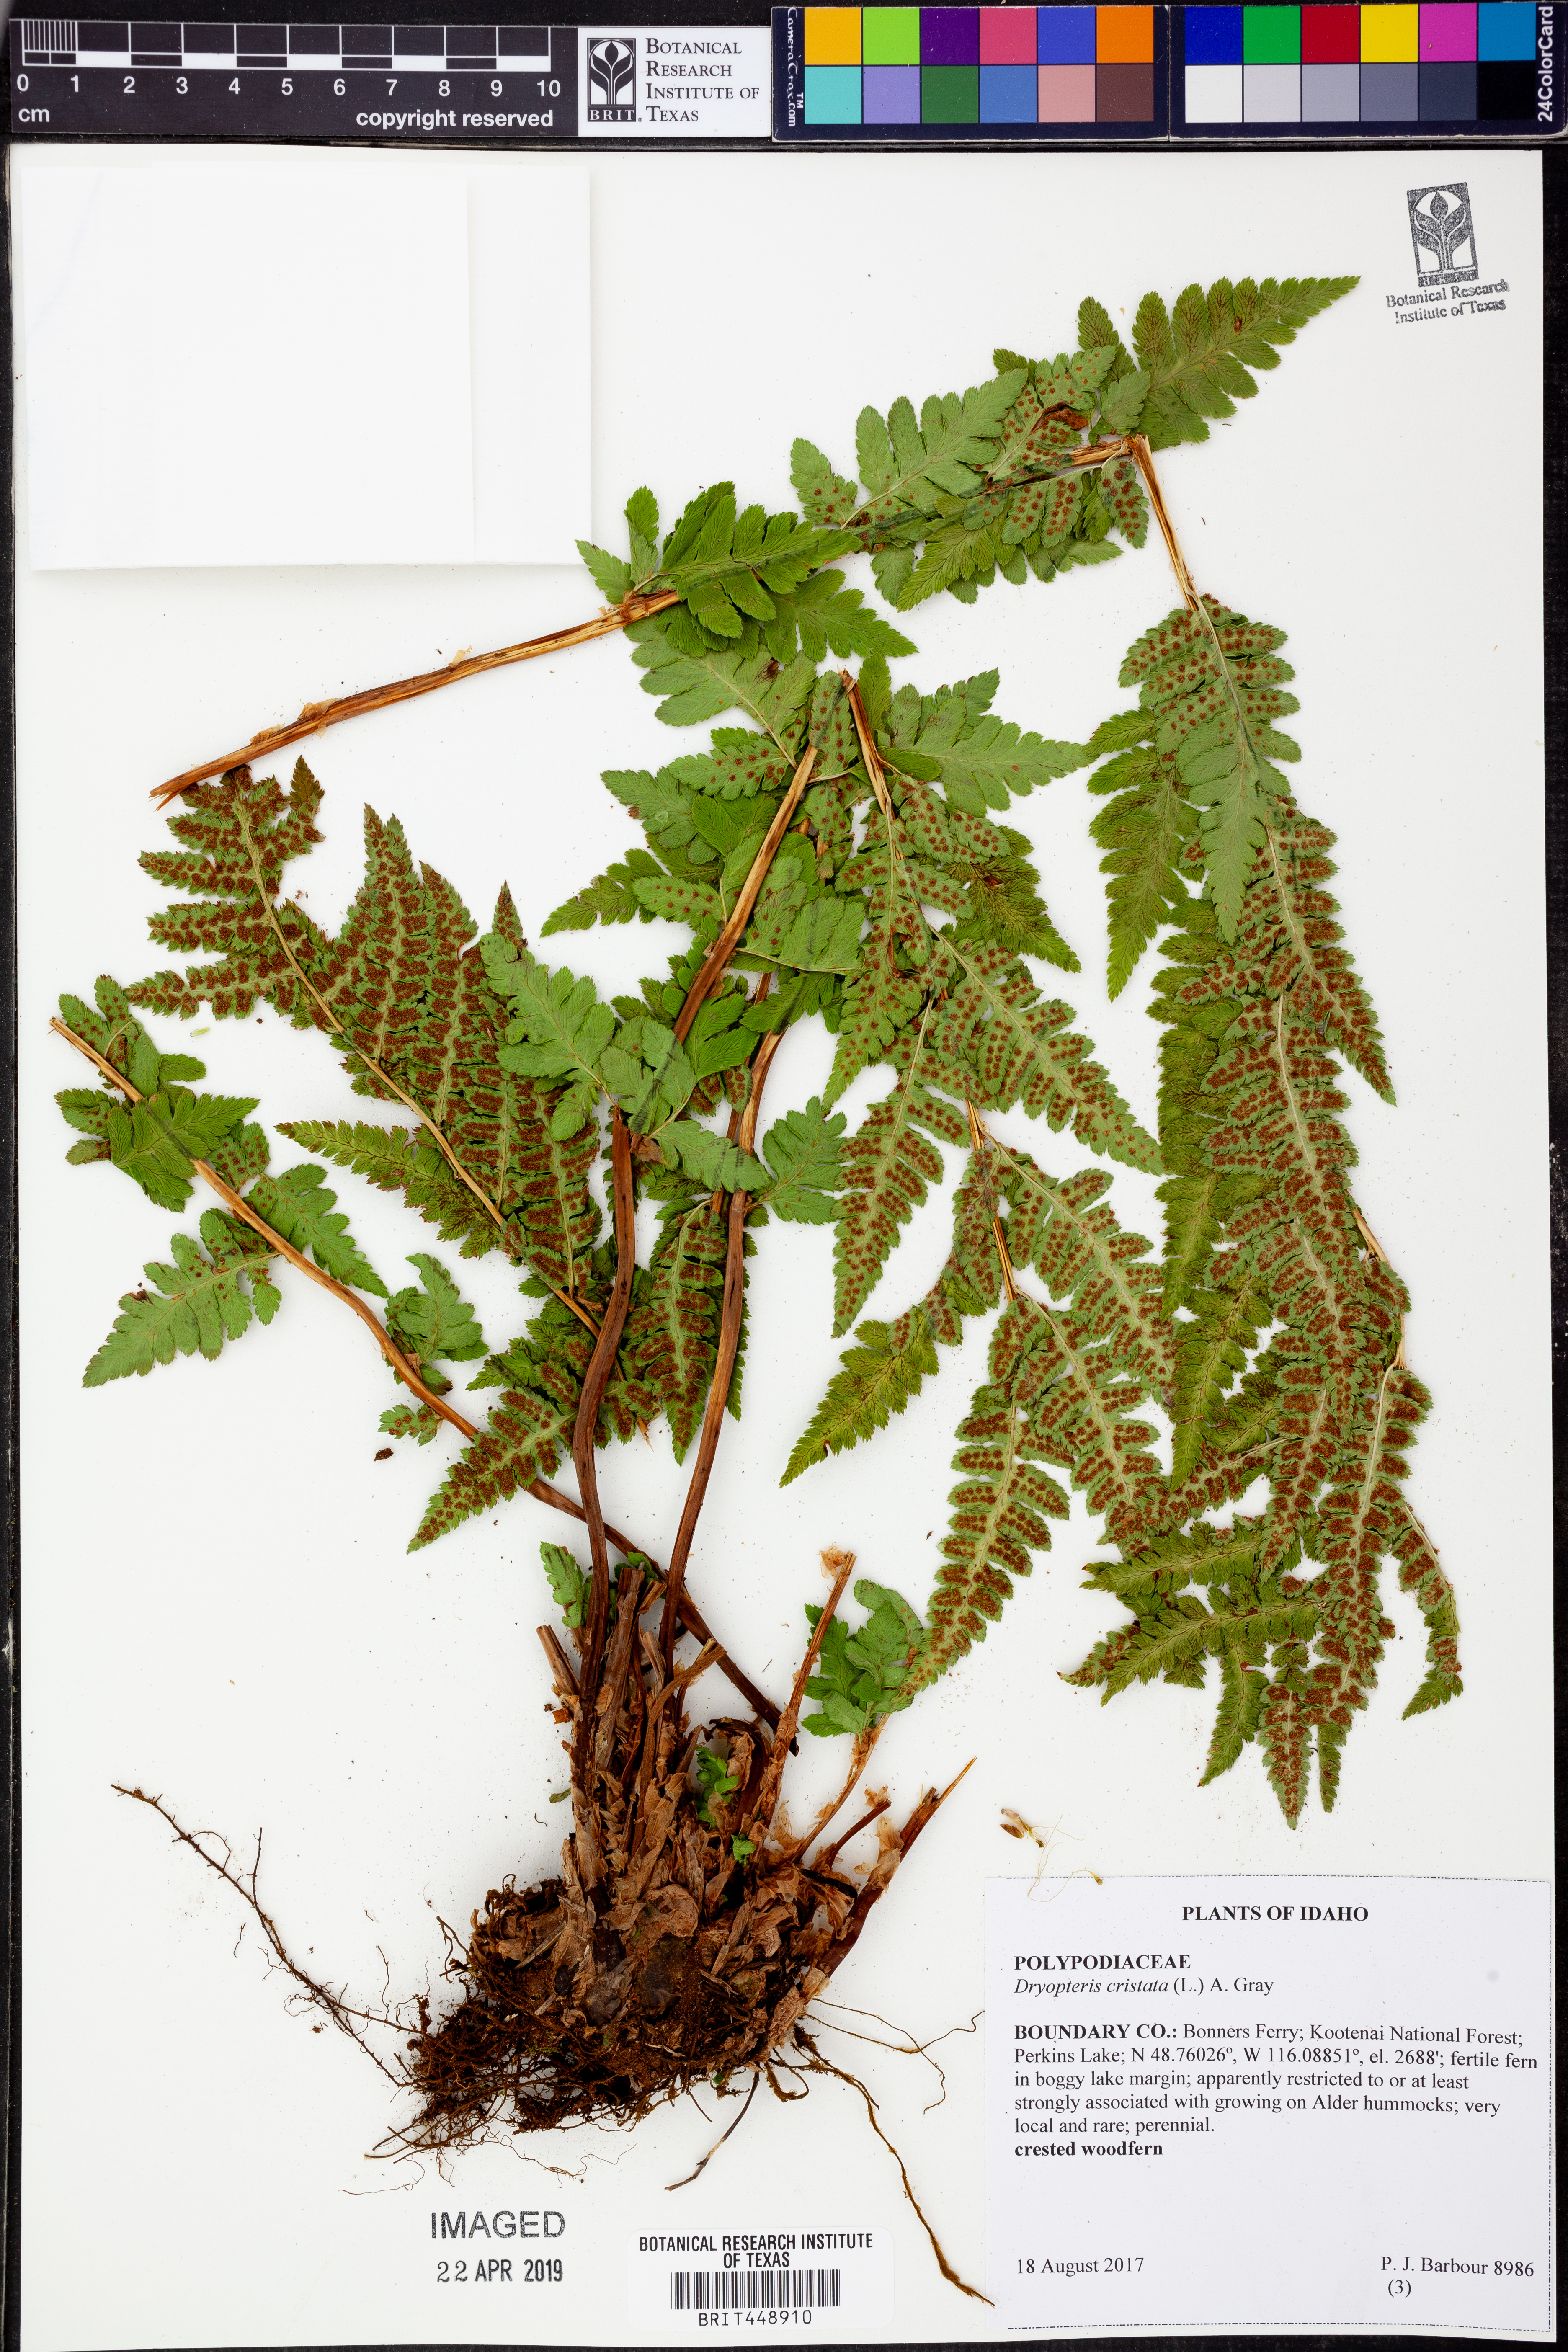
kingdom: Plantae
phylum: Tracheophyta
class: Polypodiopsida
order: Polypodiales
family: Dryopteridaceae
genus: Dryopteris
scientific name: Dryopteris cristata
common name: Crested wood fern
